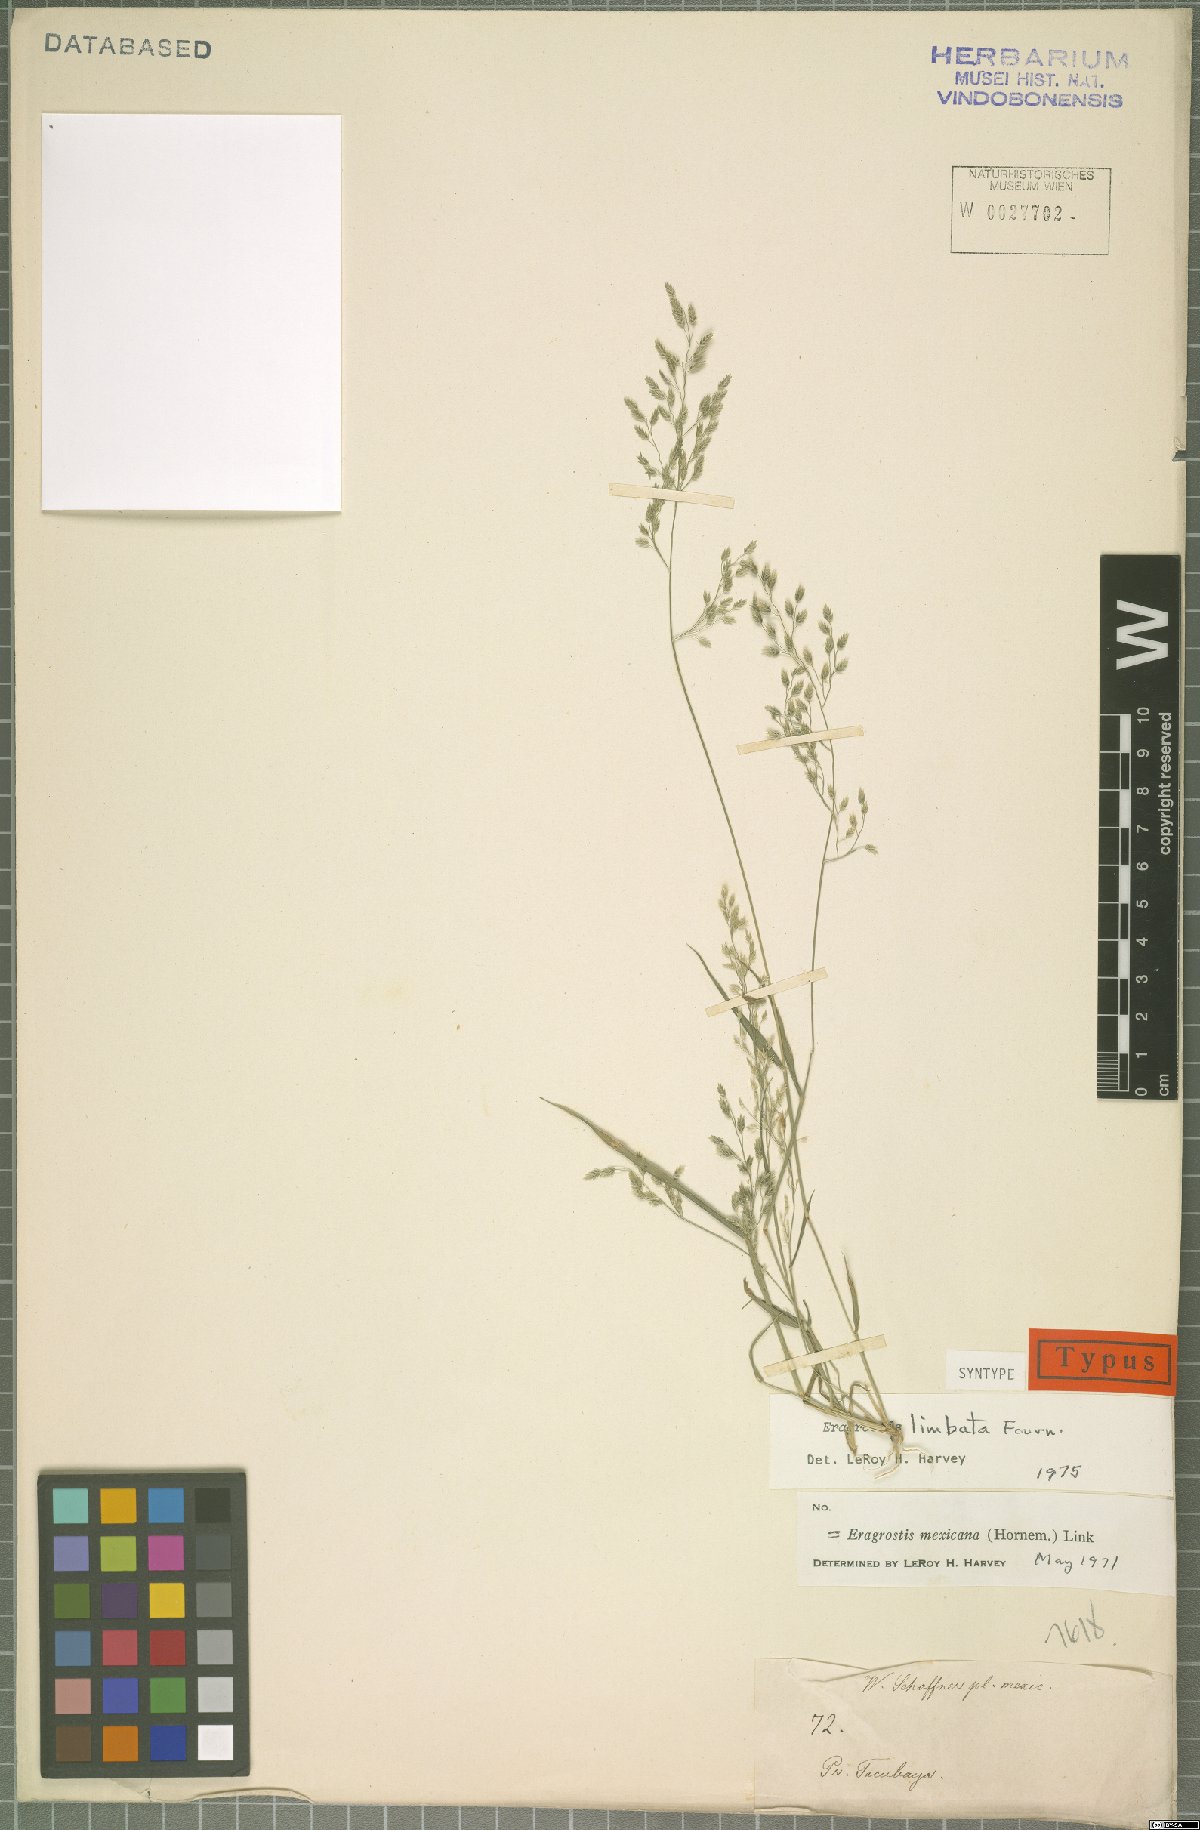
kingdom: Plantae
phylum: Tracheophyta
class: Liliopsida
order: Poales
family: Poaceae
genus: Eragrostis
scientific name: Eragrostis mexicana
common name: Mexican love grass
